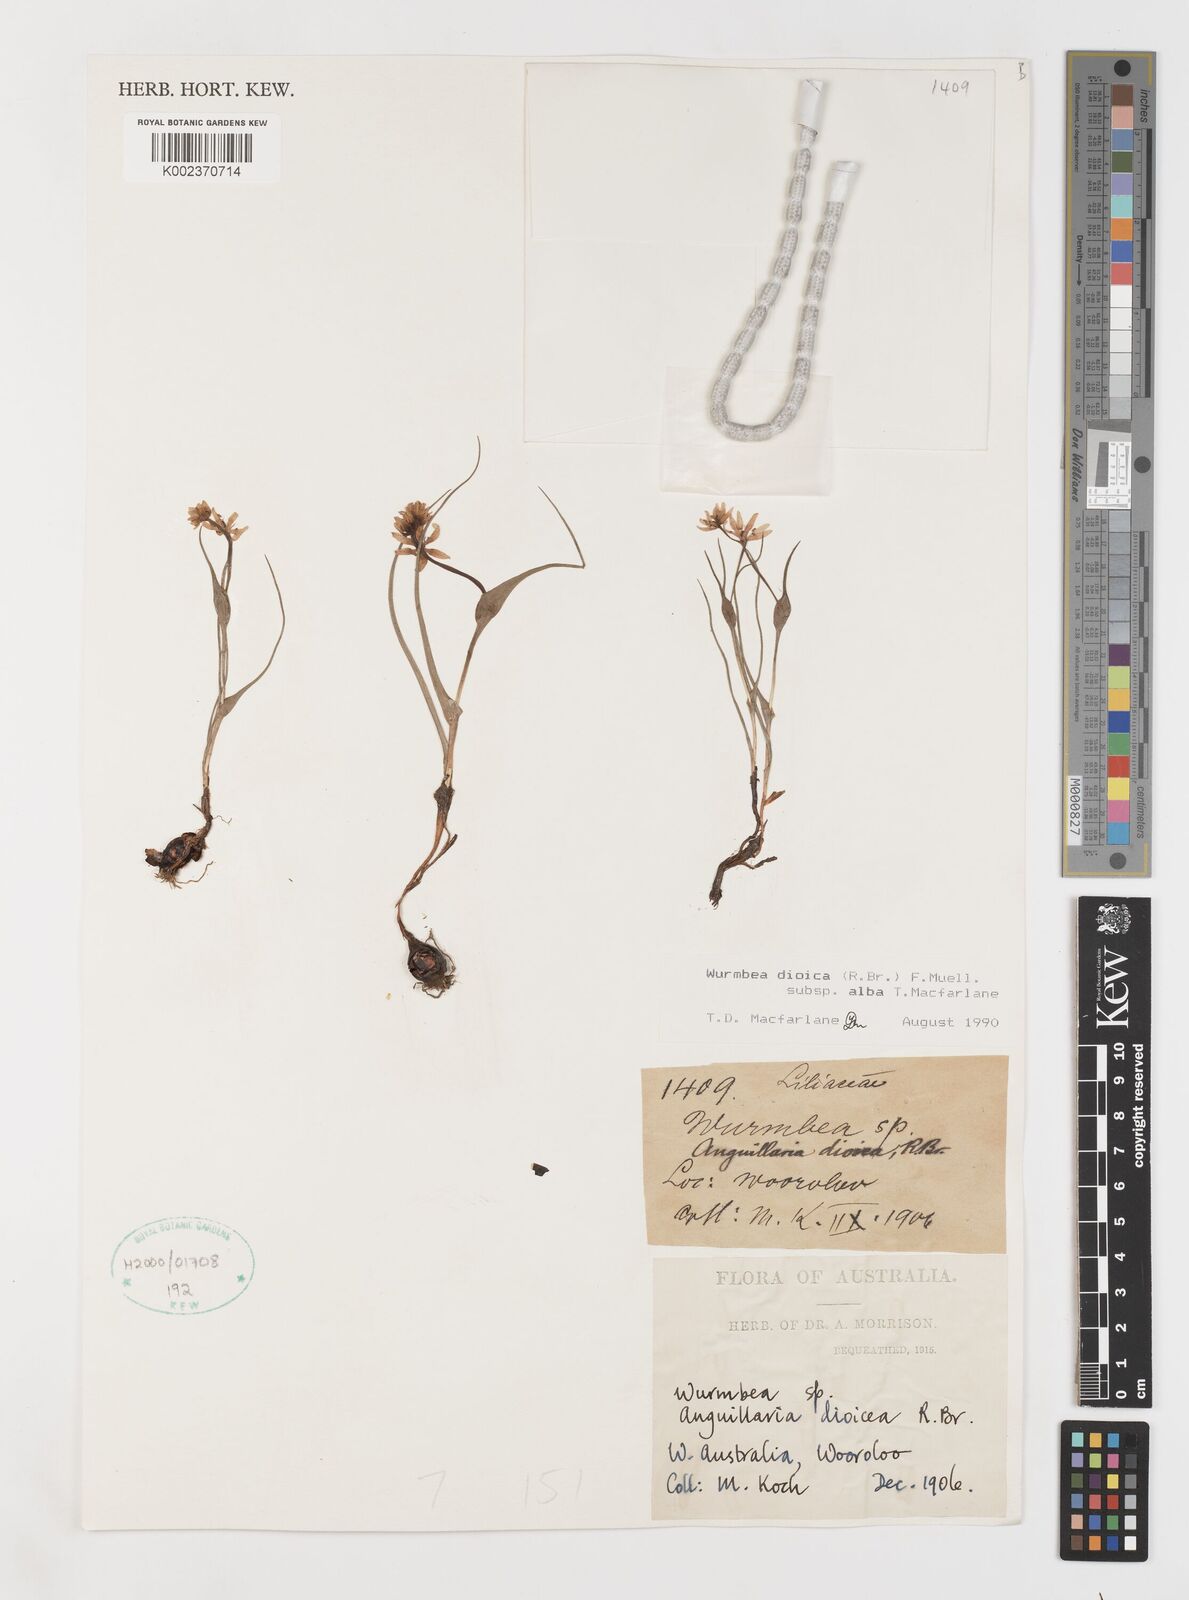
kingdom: Plantae
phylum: Tracheophyta
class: Liliopsida
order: Liliales
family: Colchicaceae
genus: Wurmbea
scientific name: Wurmbea dioica
